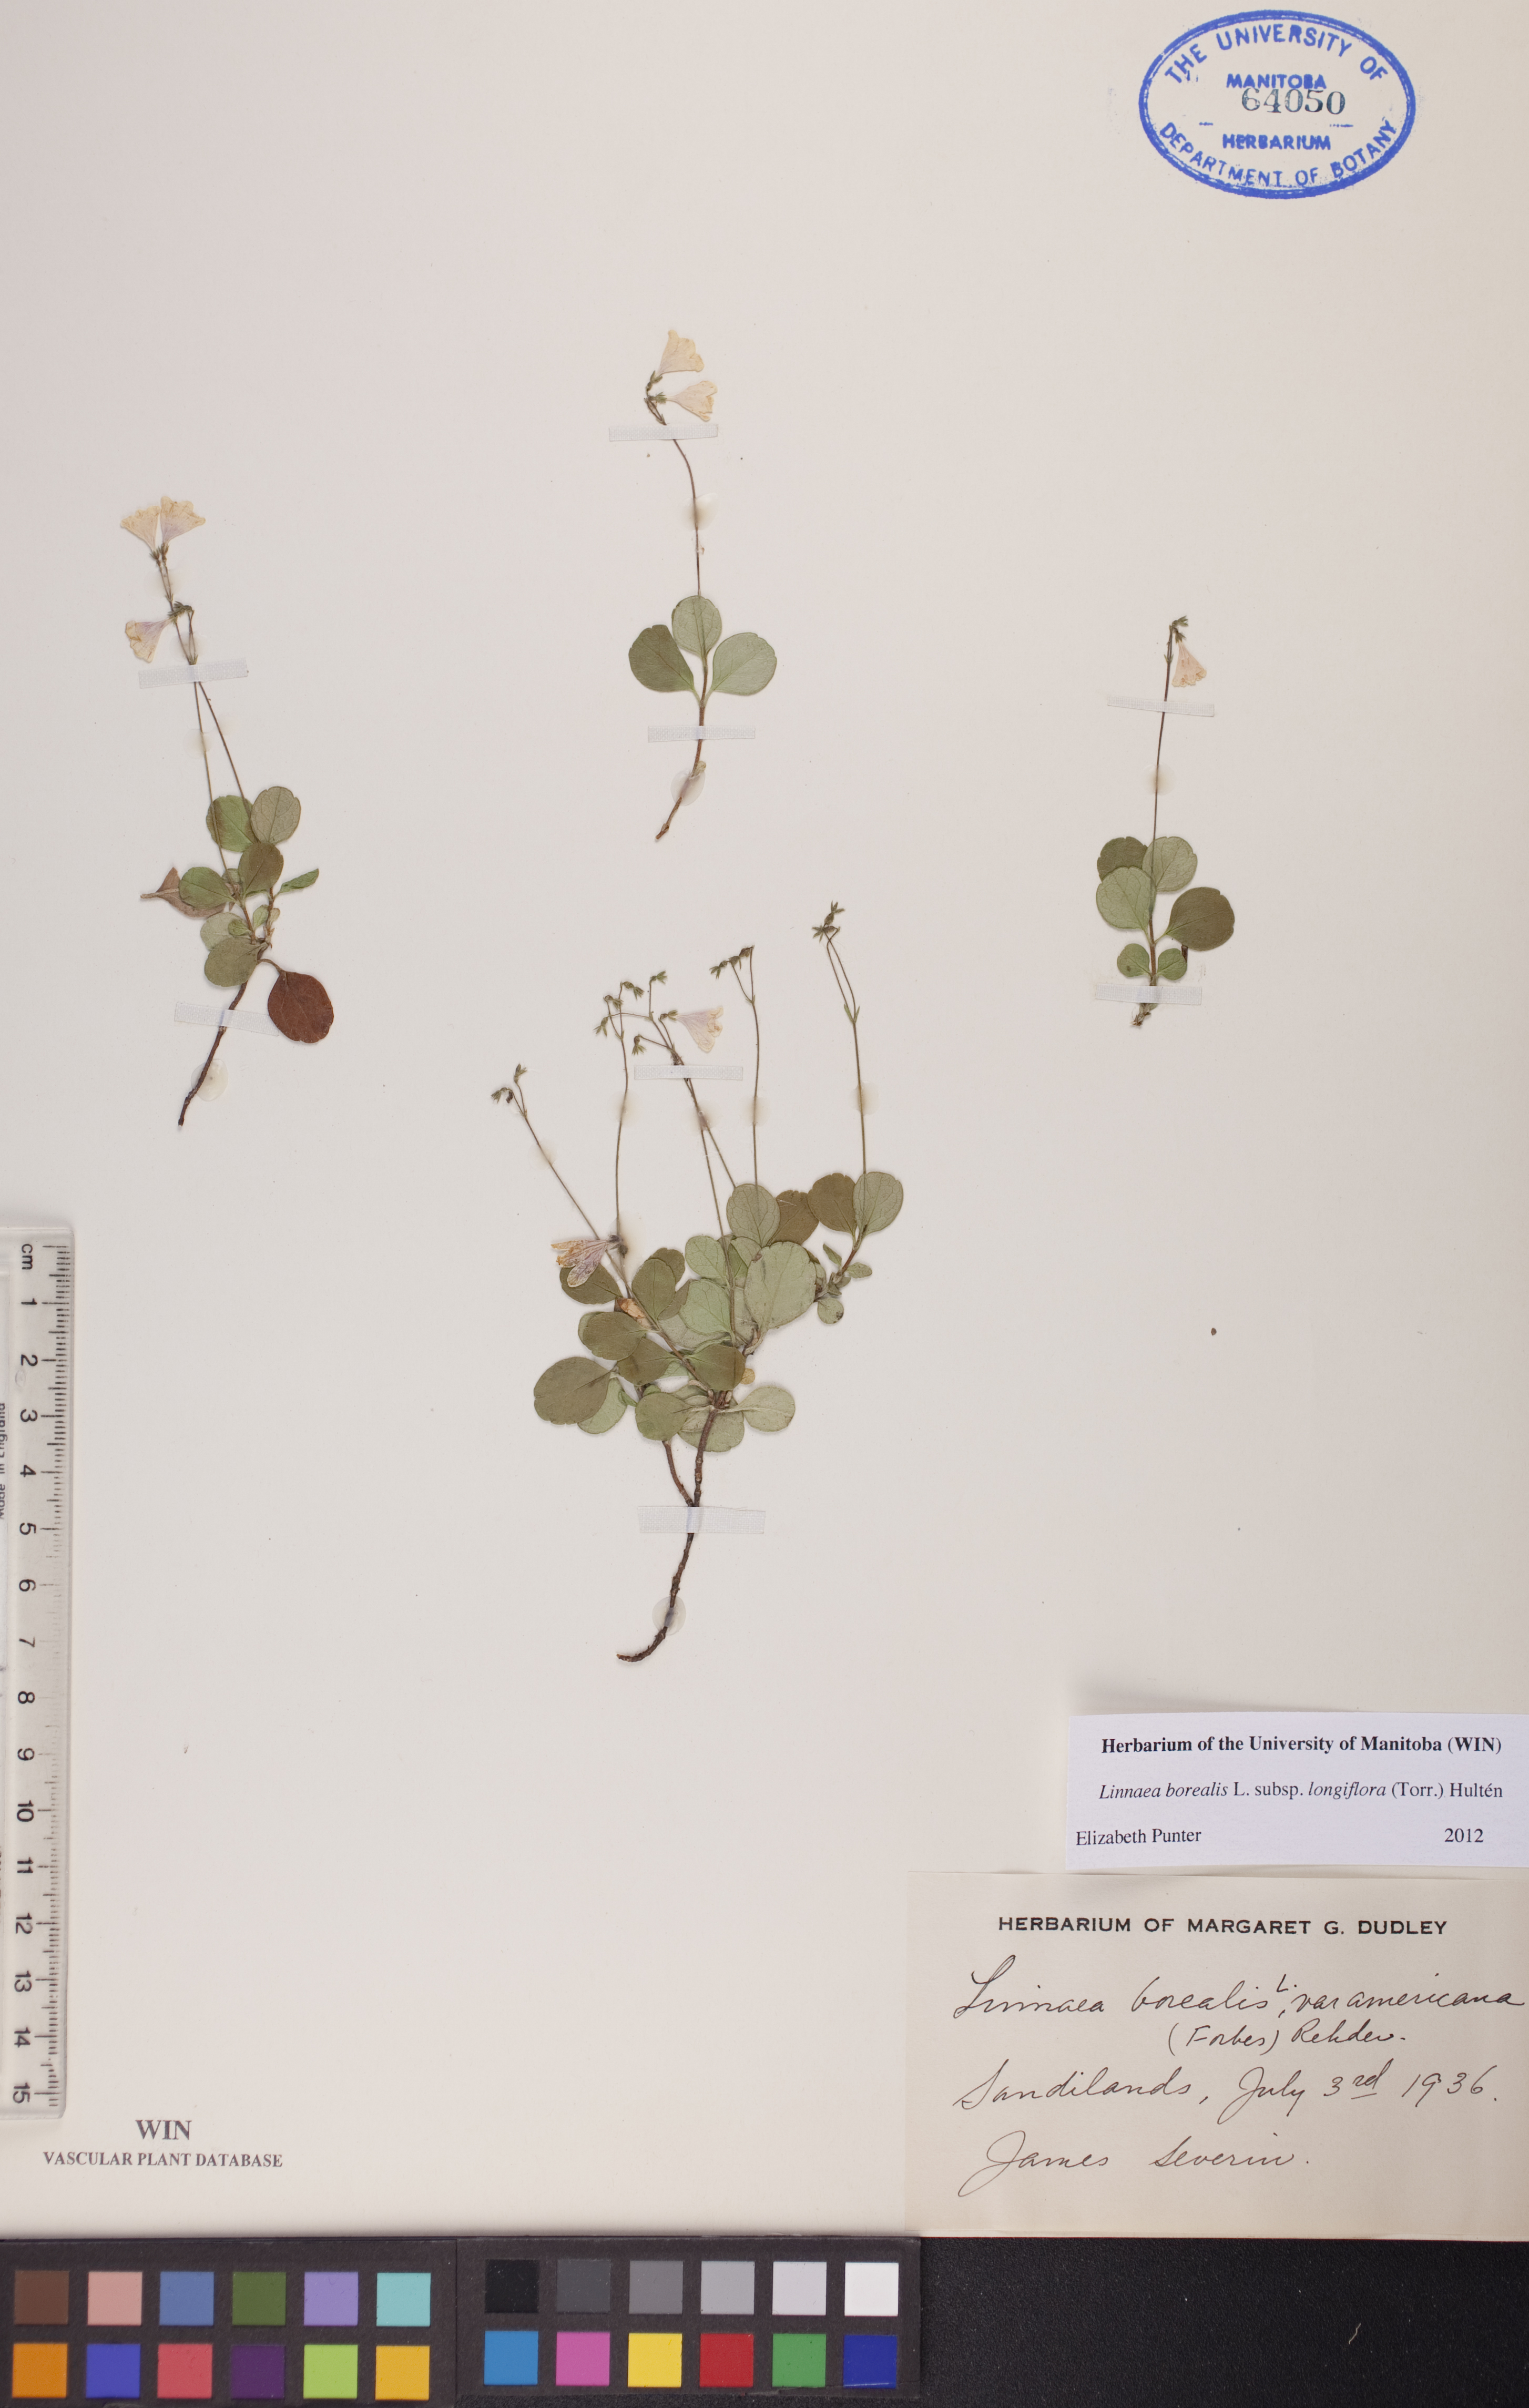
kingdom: Plantae
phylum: Tracheophyta
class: Magnoliopsida
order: Dipsacales
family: Caprifoliaceae
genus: Linnaea
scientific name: Linnaea borealis
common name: Twinflower
